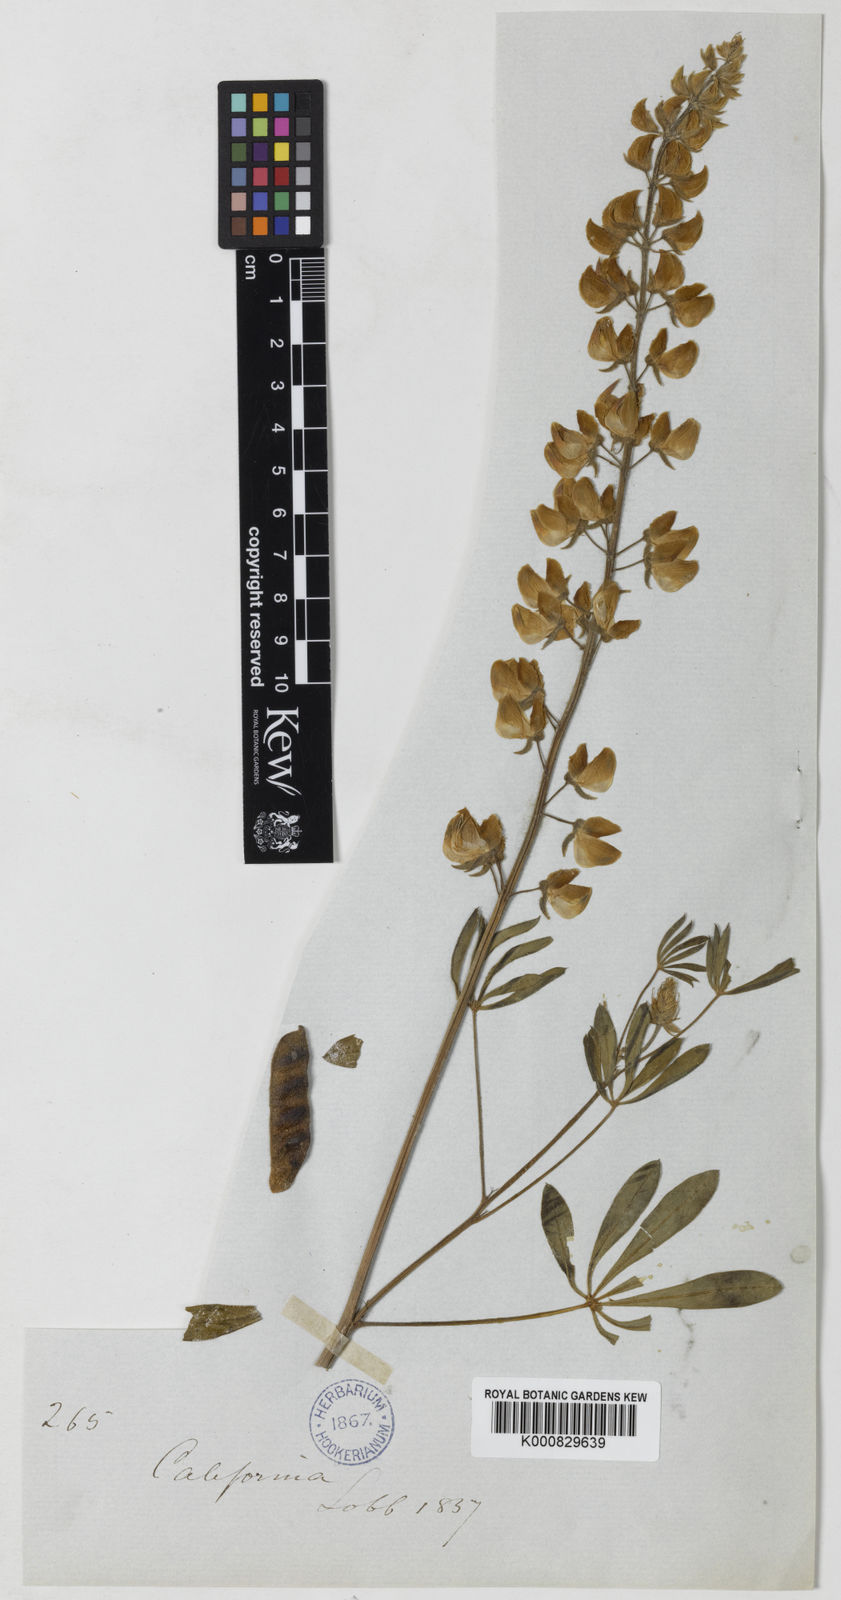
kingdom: Plantae
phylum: Tracheophyta
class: Magnoliopsida
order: Fabales
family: Fabaceae
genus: Lupinus
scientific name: Lupinus latifolius
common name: Broad-leaved lupine
